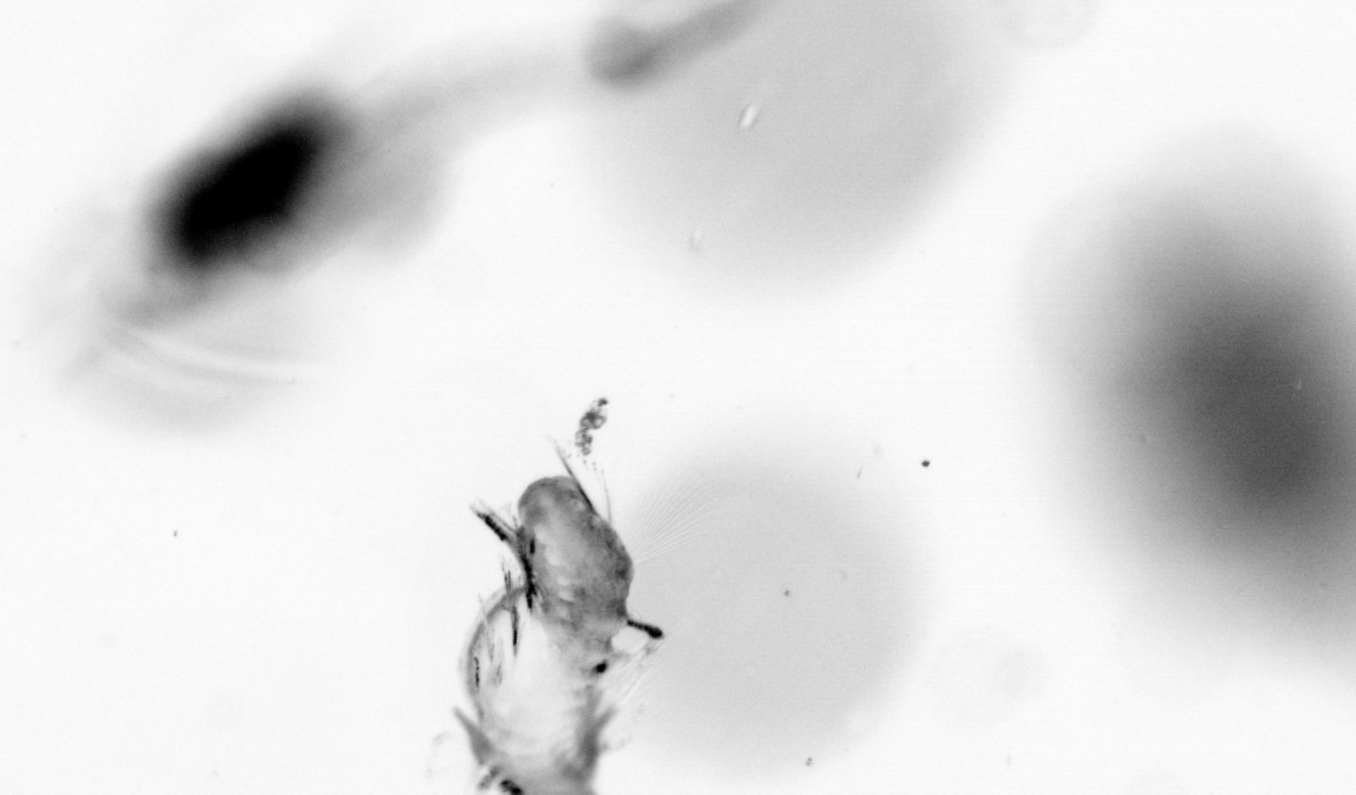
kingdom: Animalia
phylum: Annelida
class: Polychaeta
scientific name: Polychaeta
